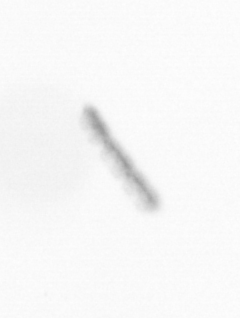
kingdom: Chromista
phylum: Ochrophyta
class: Bacillariophyceae
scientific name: Bacillariophyceae
